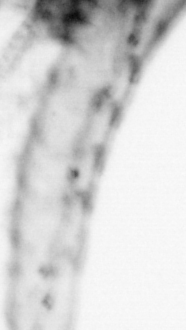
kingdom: Animalia
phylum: Chordata
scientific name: Chordata
